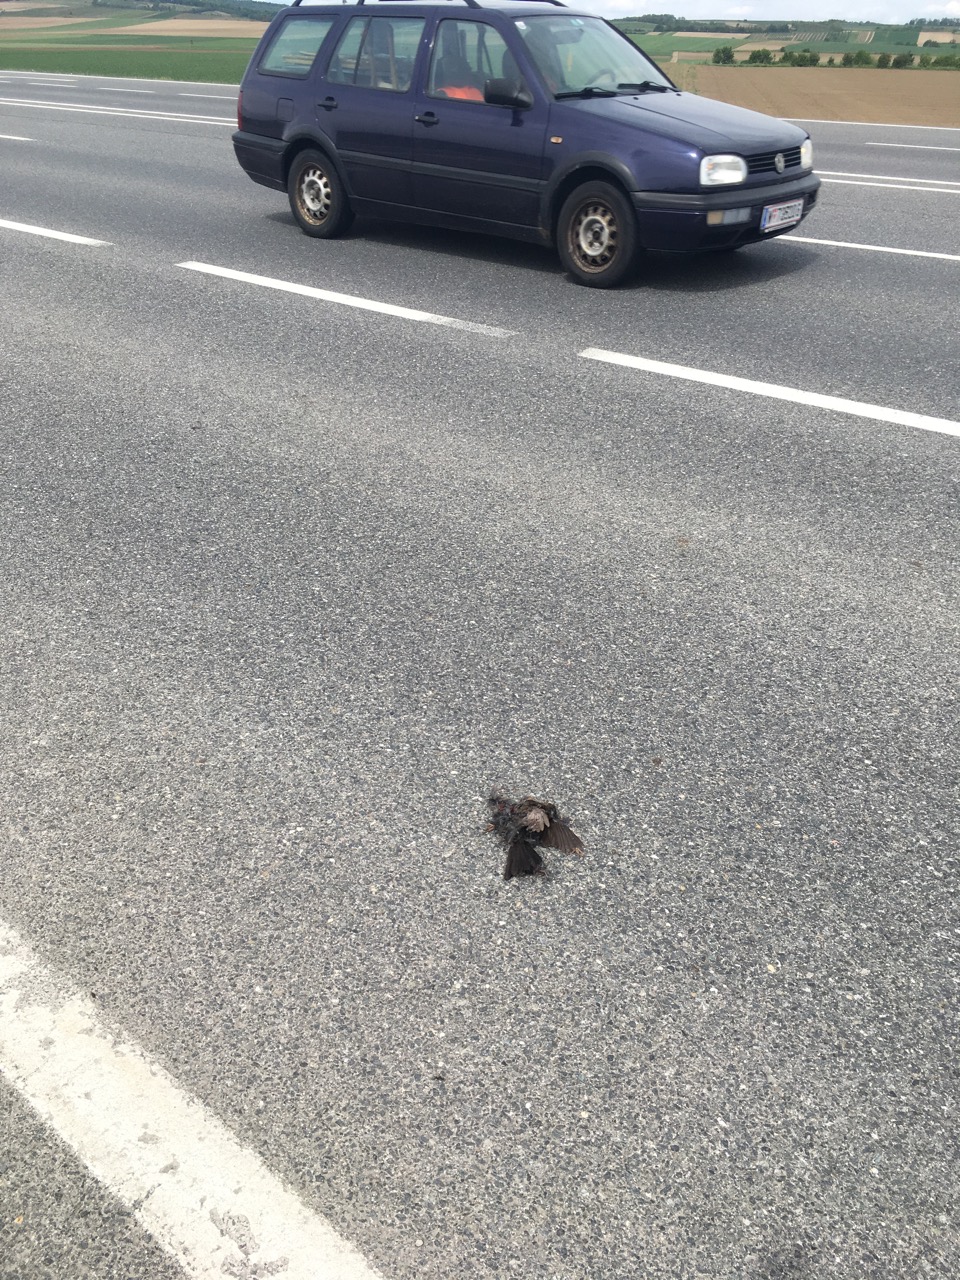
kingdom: Animalia
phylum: Chordata
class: Aves
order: Passeriformes
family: Turdidae
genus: Turdus
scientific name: Turdus merula
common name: Common blackbird
